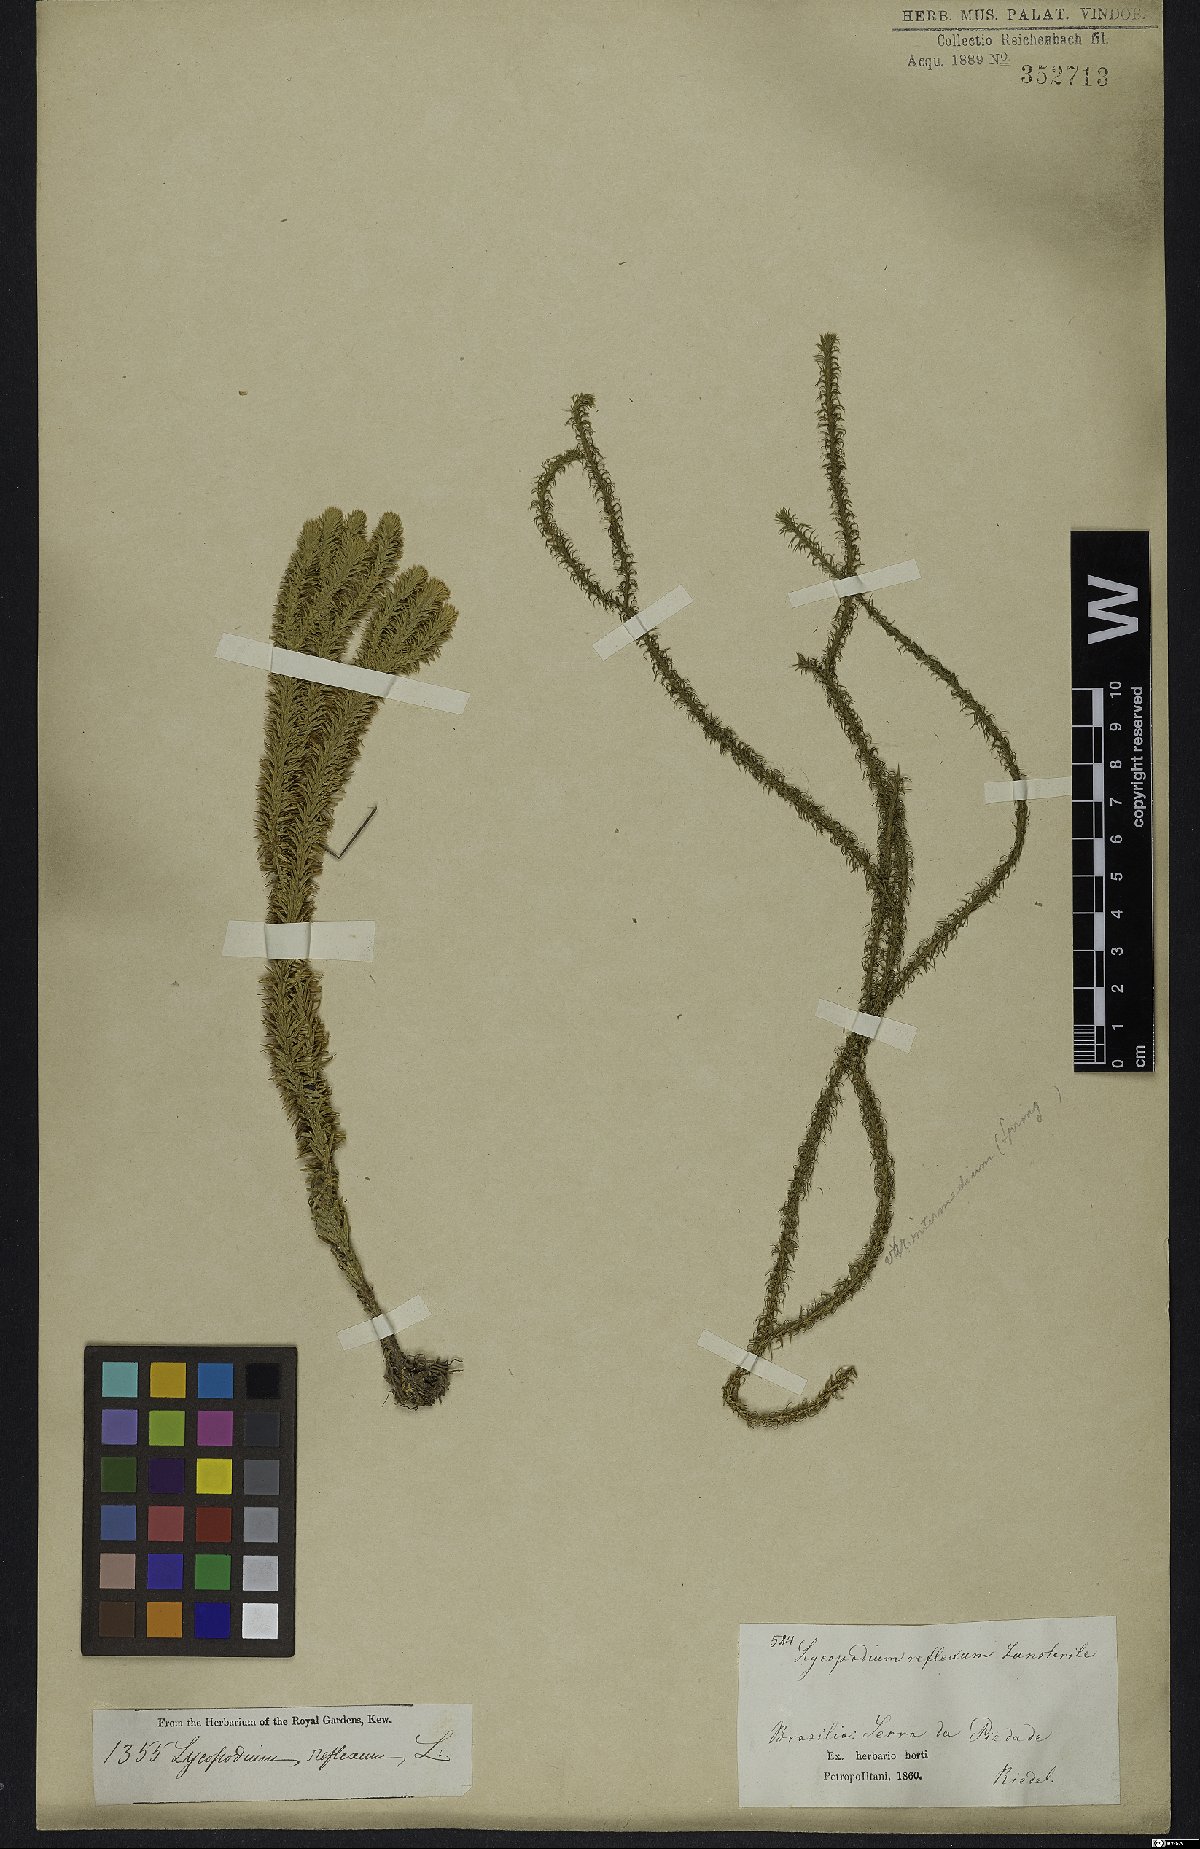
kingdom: Plantae
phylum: Tracheophyta
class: Lycopodiopsida
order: Lycopodiales
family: Lycopodiaceae
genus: Phlegmariurus
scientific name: Phlegmariurus reflexus
